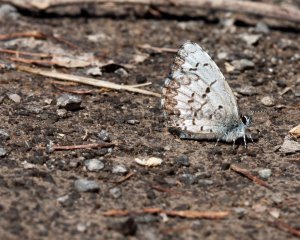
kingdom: Animalia
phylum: Arthropoda
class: Insecta
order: Lepidoptera
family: Lycaenidae
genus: Celastrina
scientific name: Celastrina lucia
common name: Northern Spring Azure
